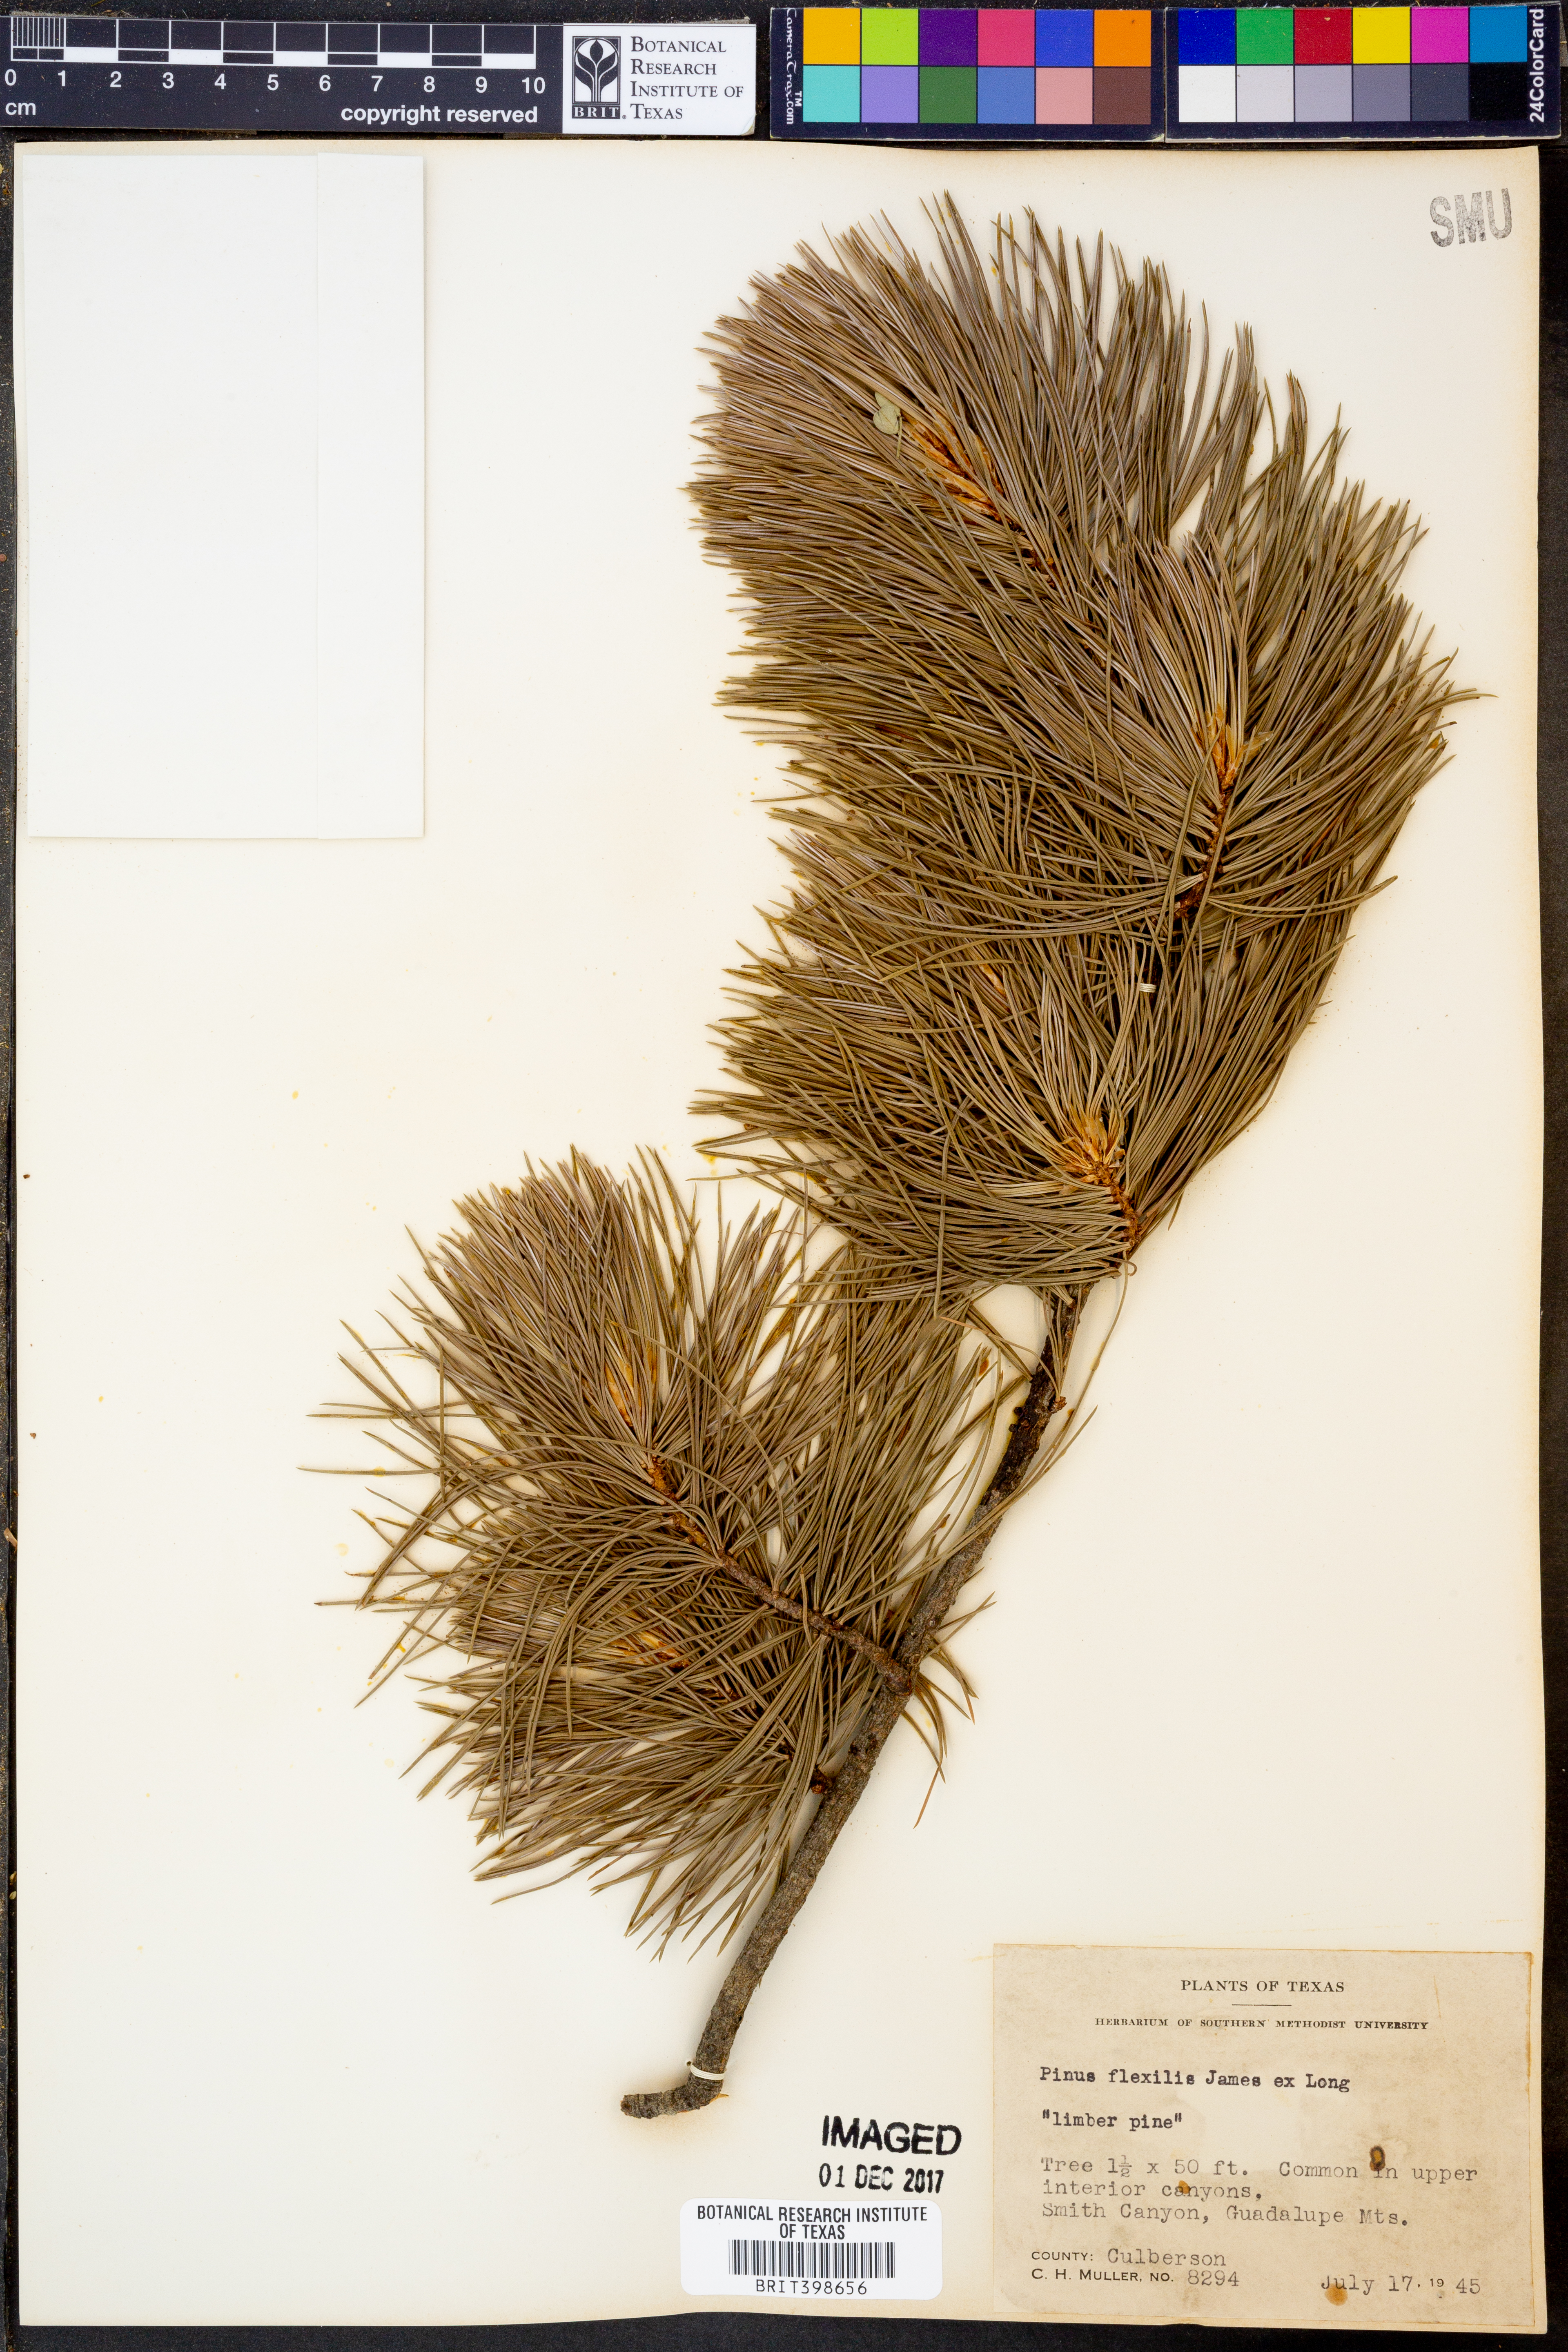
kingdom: Plantae
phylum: Tracheophyta
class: Pinopsida
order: Pinales
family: Pinaceae
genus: Pinus
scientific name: Pinus flexilis
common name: Limber pine
